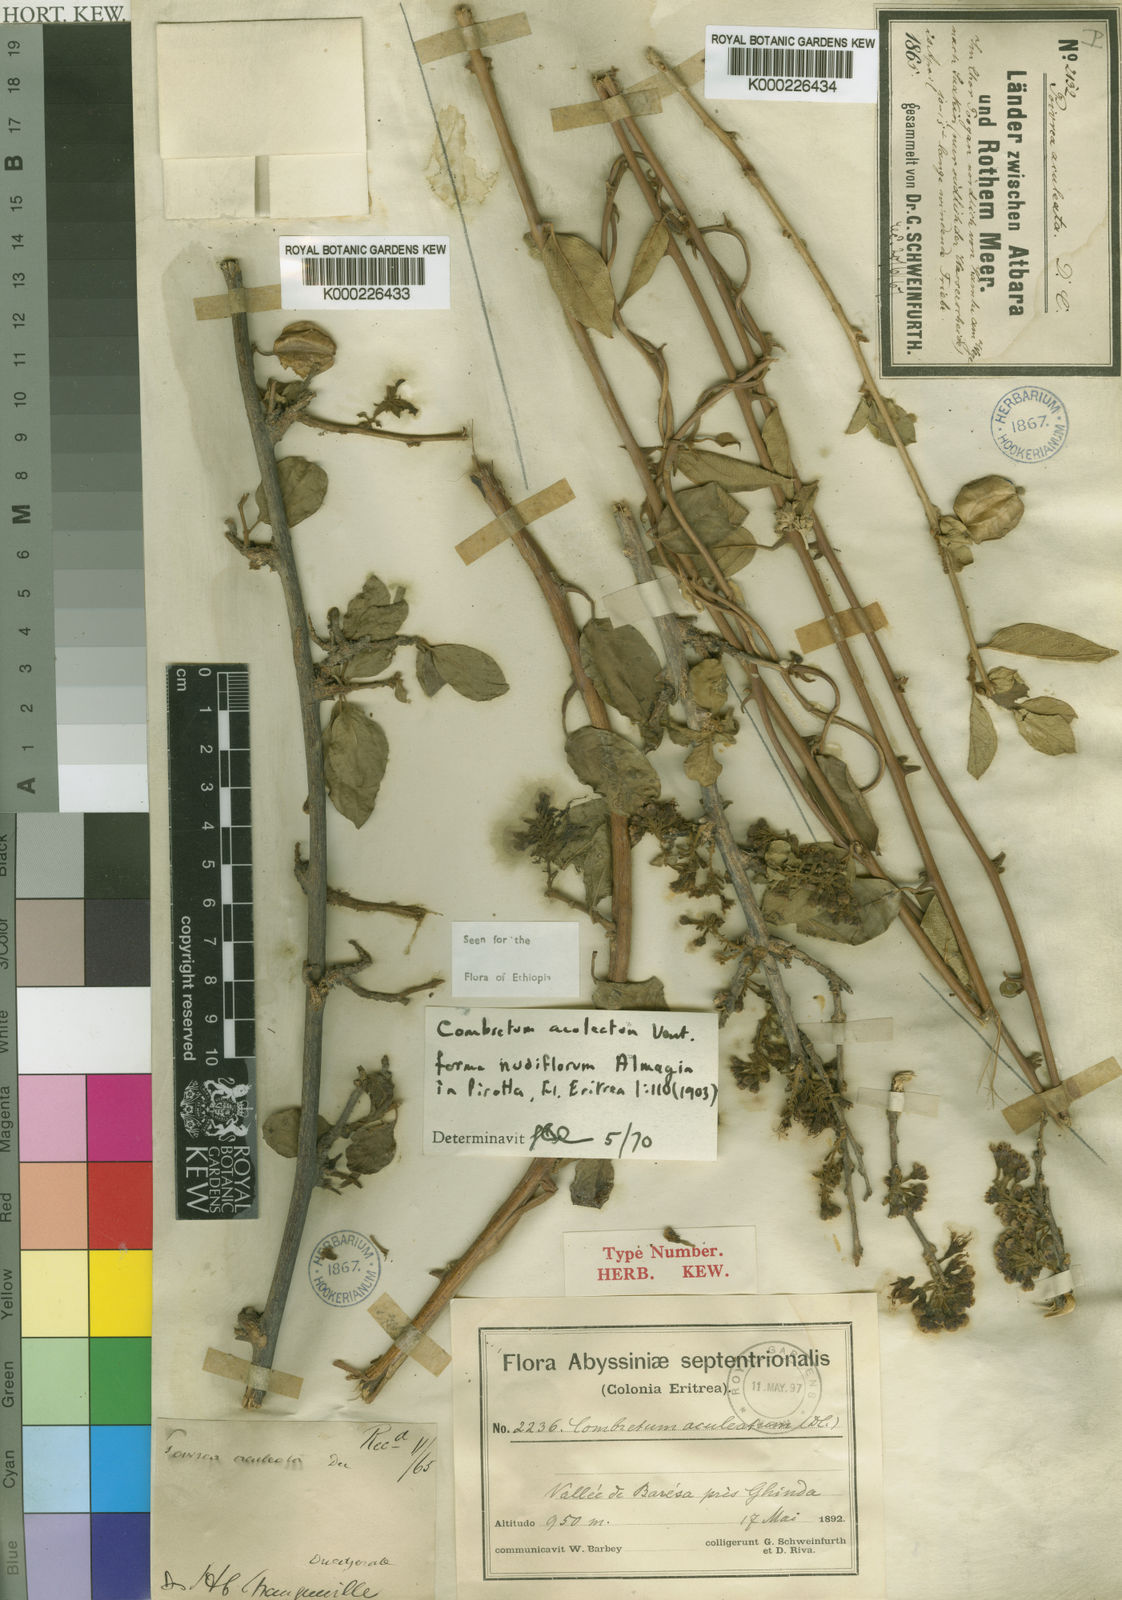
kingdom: Plantae
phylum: Tracheophyta
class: Magnoliopsida
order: Myrtales
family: Combretaceae
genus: Combretum
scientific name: Combretum aculeatum
